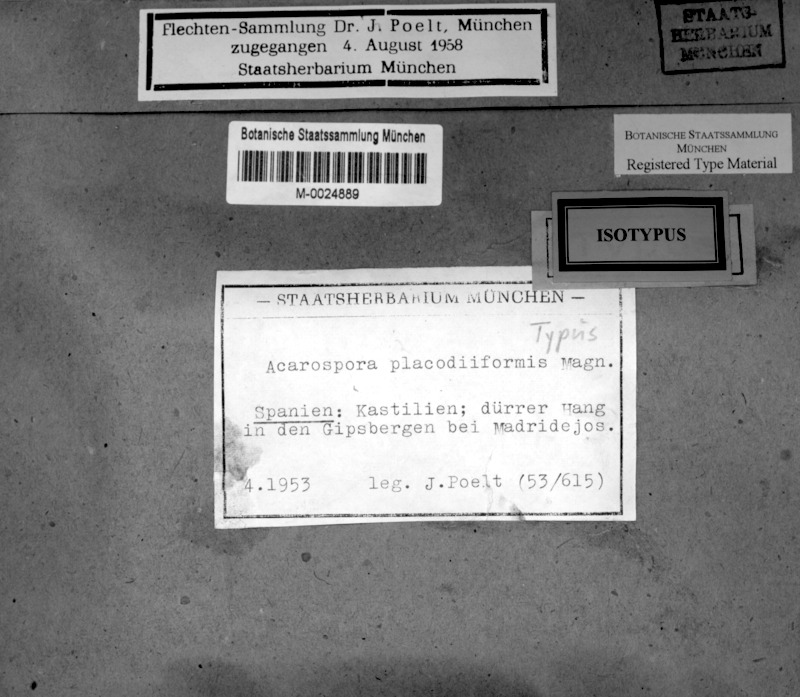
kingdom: Fungi
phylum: Ascomycota
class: Lecanoromycetes
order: Acarosporales
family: Acarosporaceae
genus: Acarospora
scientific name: Acarospora placodiiformis
